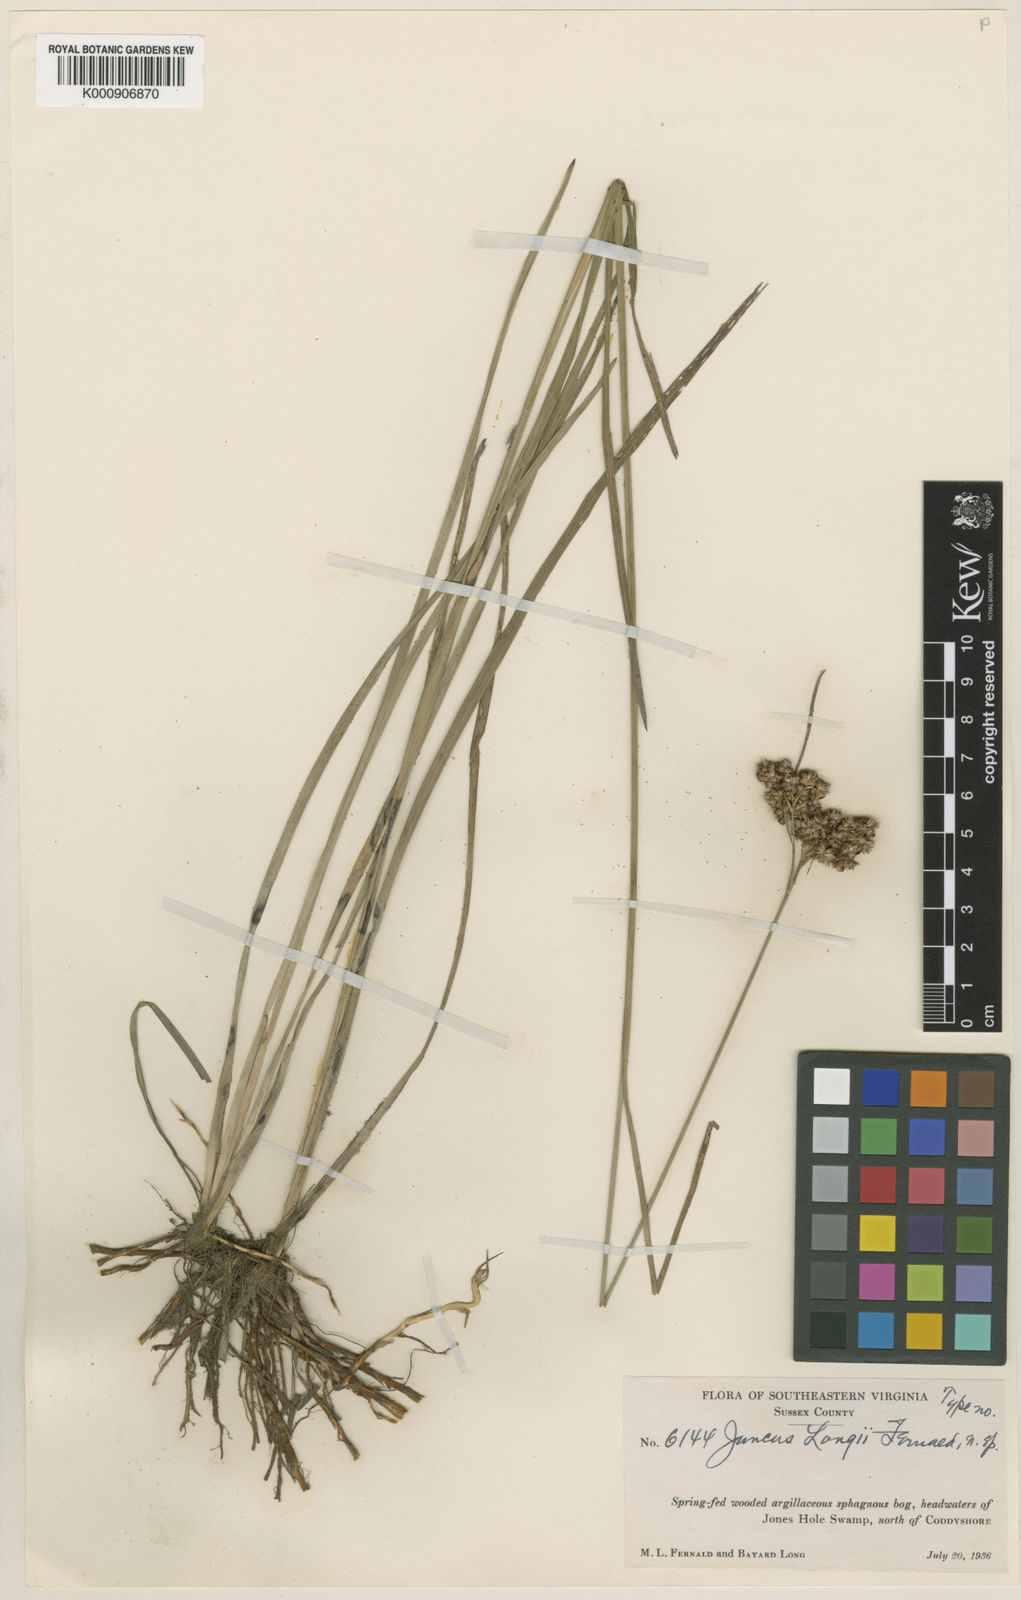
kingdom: Plantae
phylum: Tracheophyta
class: Liliopsida
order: Poales
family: Juncaceae
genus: Juncus
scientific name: Juncus longii
